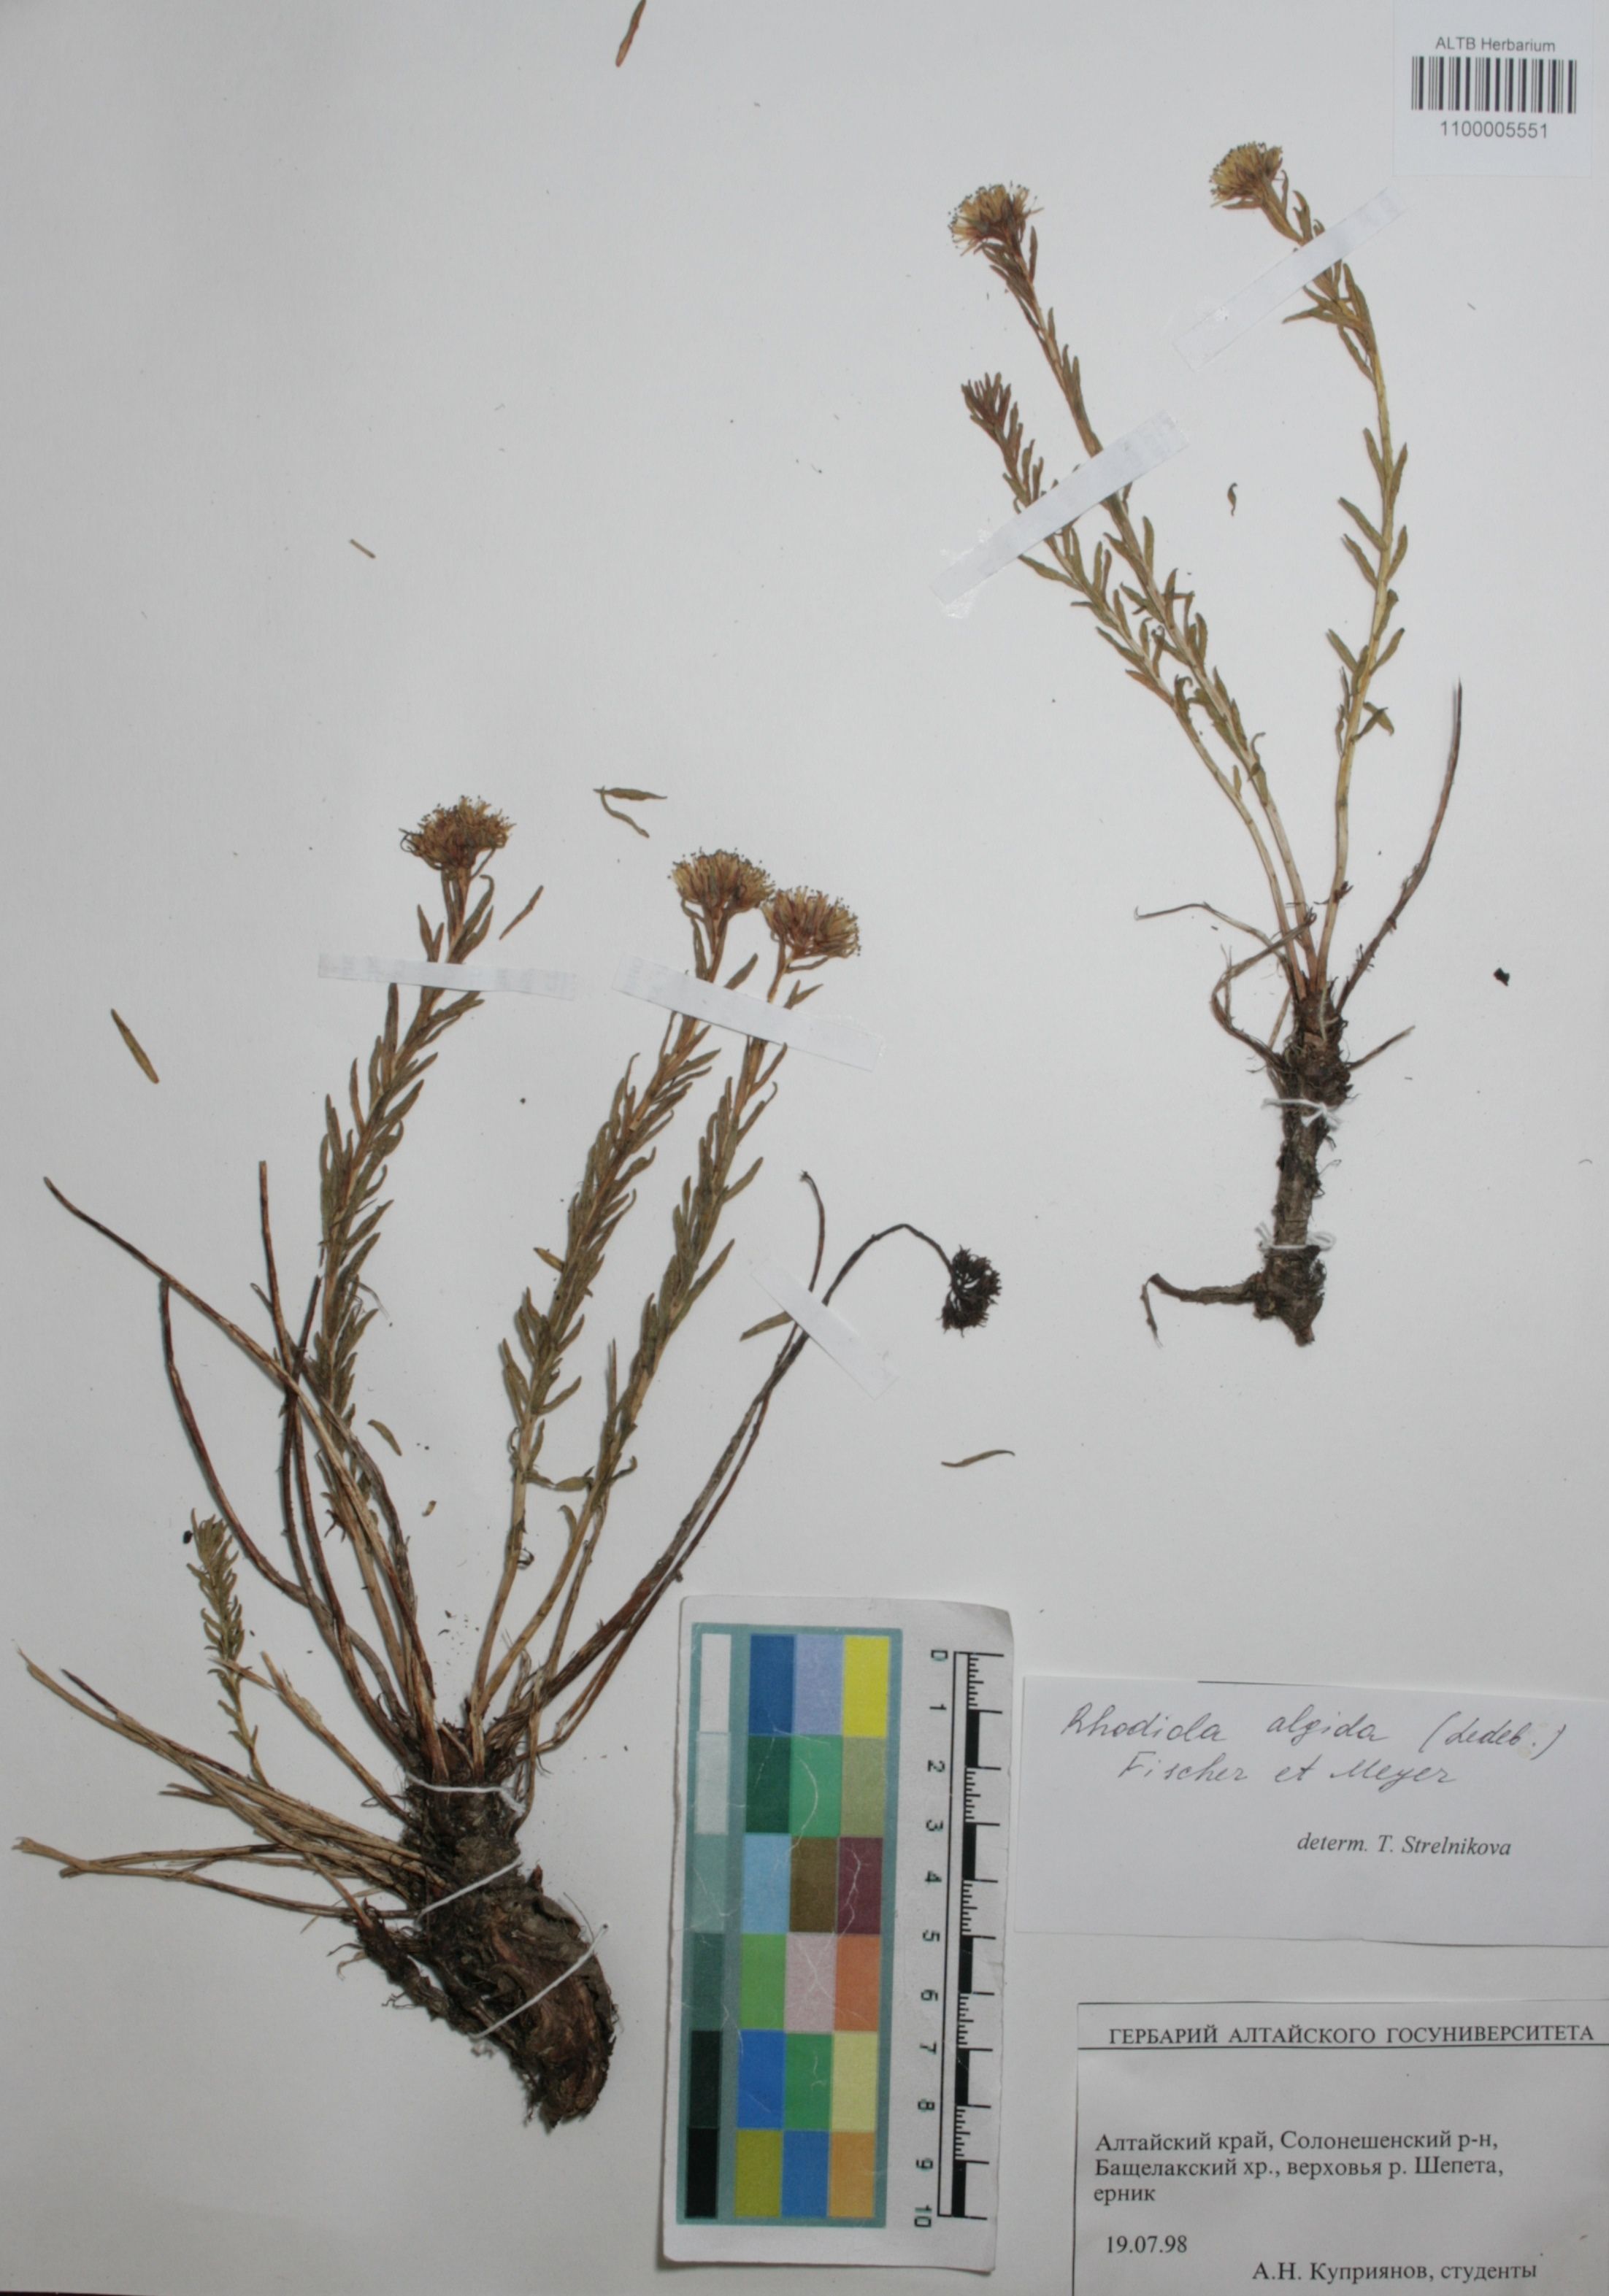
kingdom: Plantae
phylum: Tracheophyta
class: Magnoliopsida
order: Saxifragales
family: Crassulaceae
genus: Rhodiola
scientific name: Rhodiola algida
